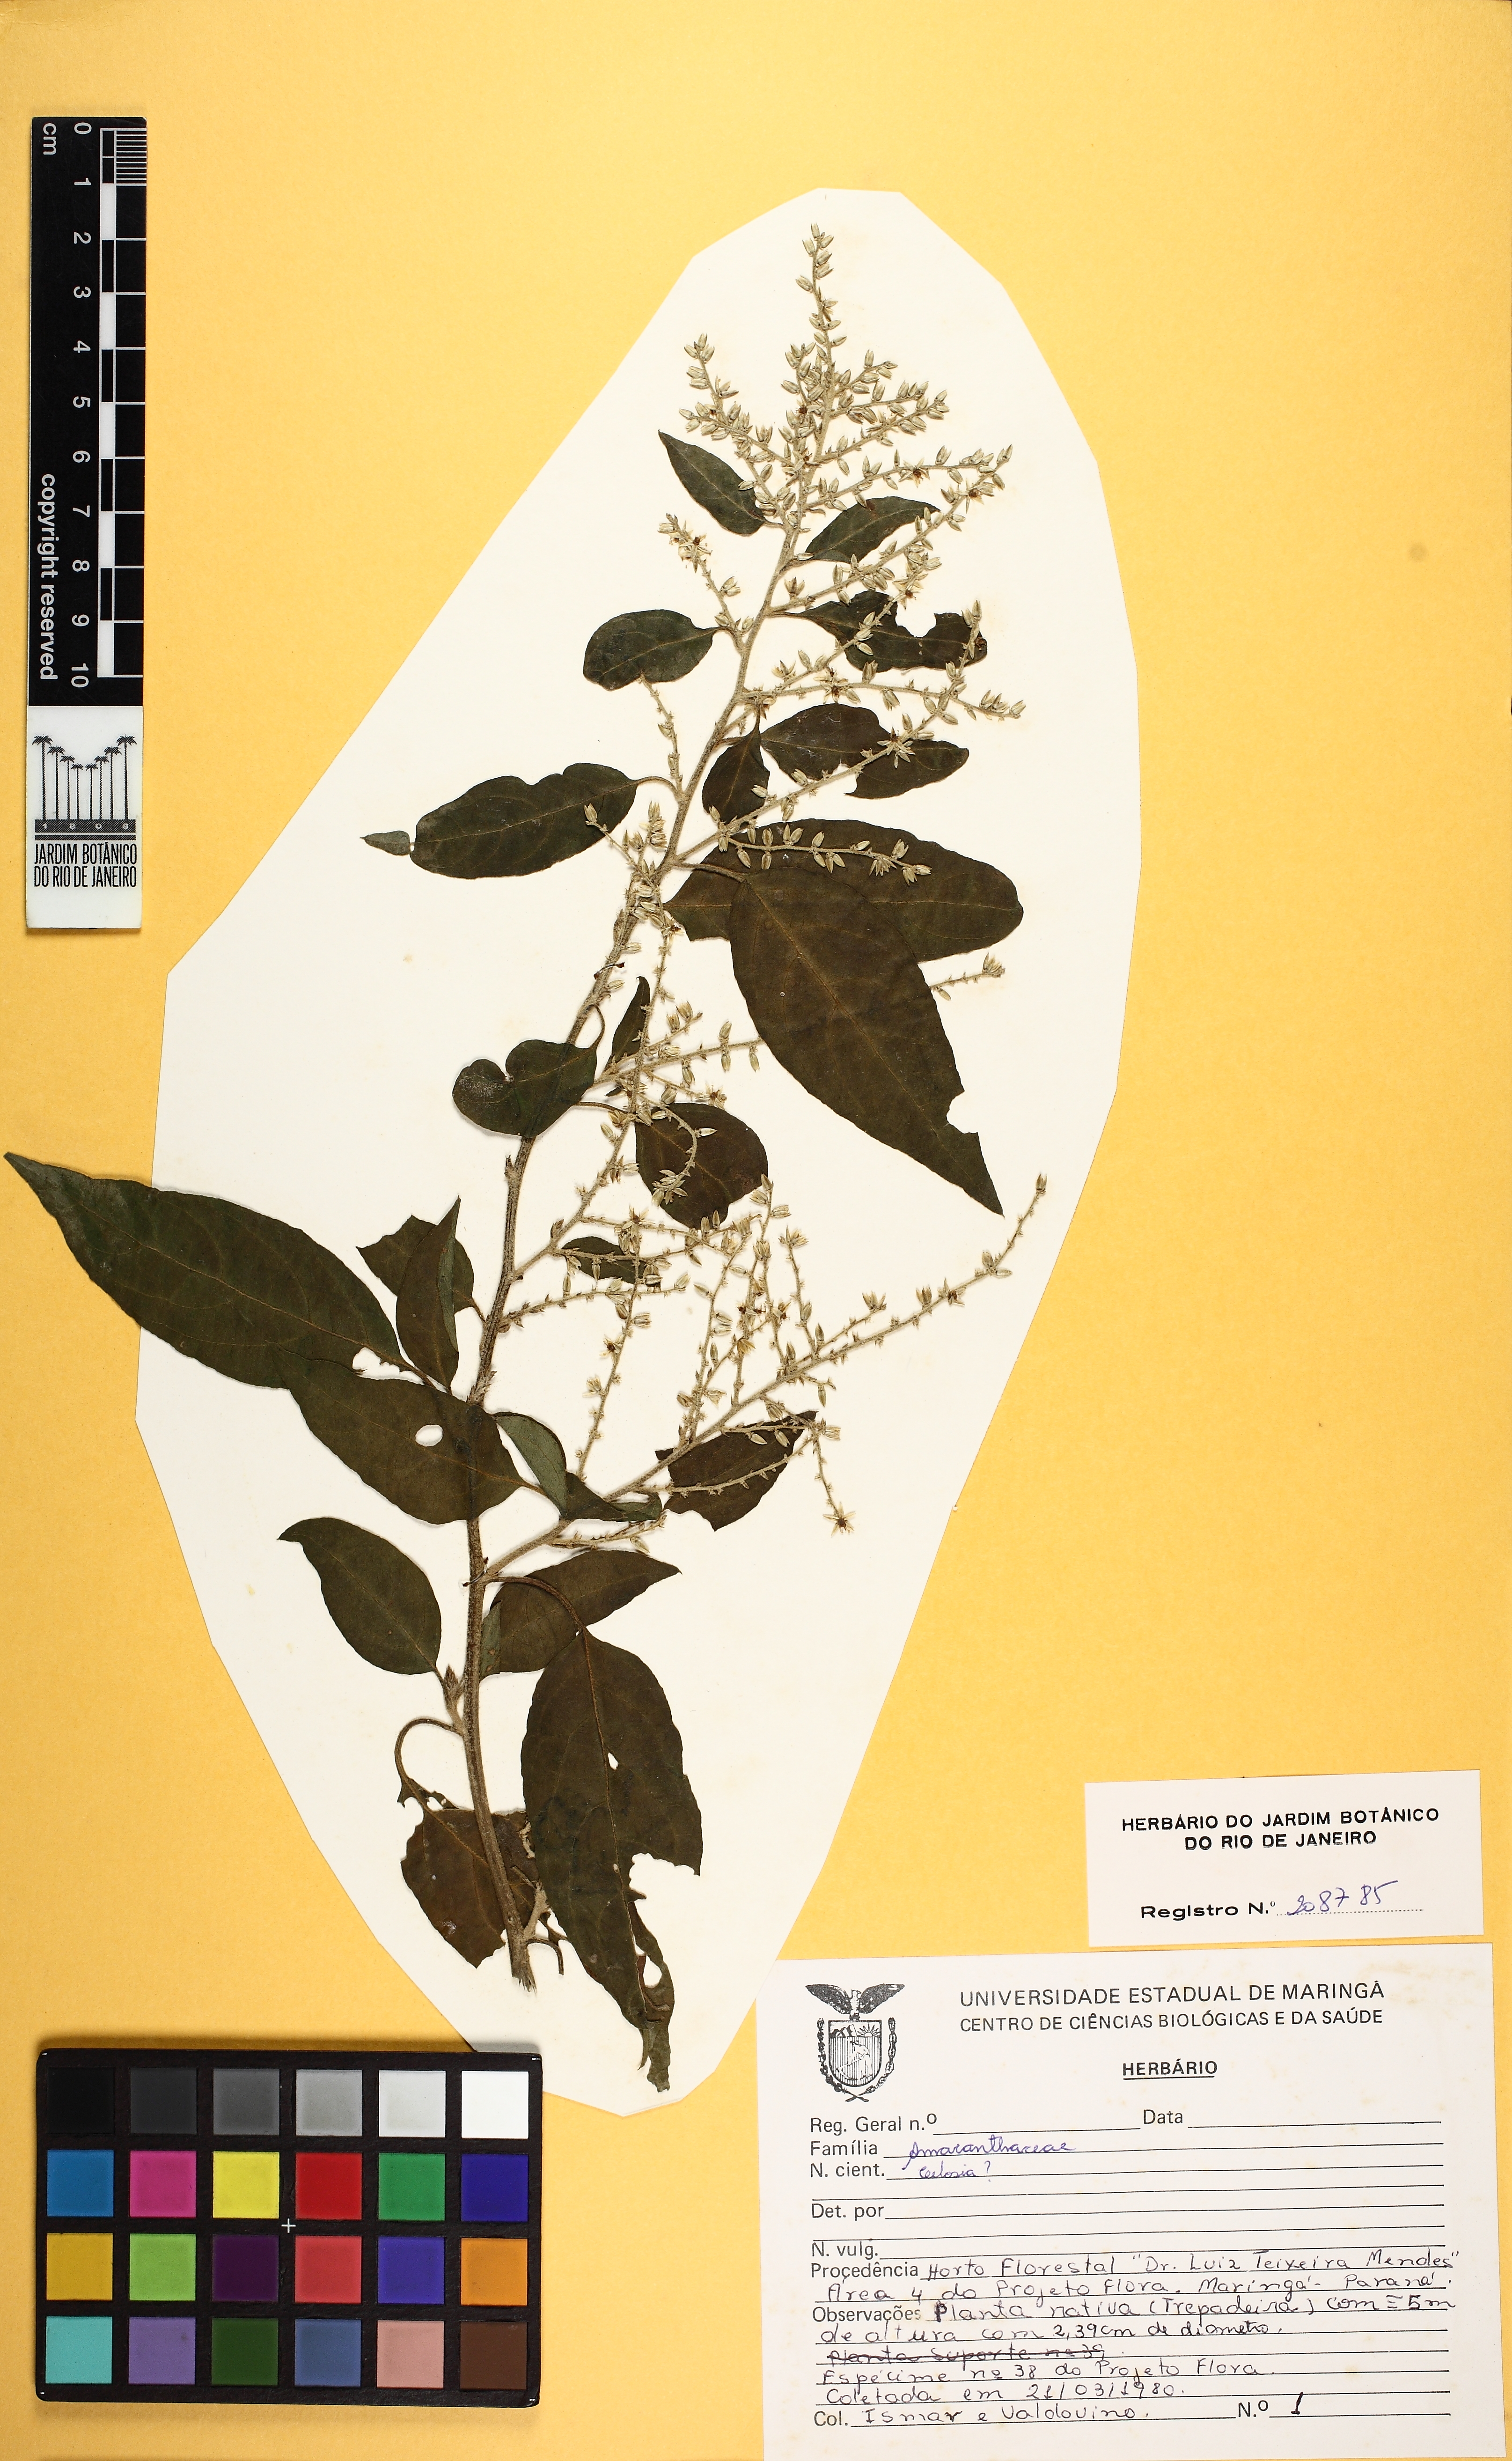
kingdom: Plantae
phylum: Tracheophyta
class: Magnoliopsida
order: Caryophyllales
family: Amaranthaceae
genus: Chamissoa
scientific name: Chamissoa altissima
